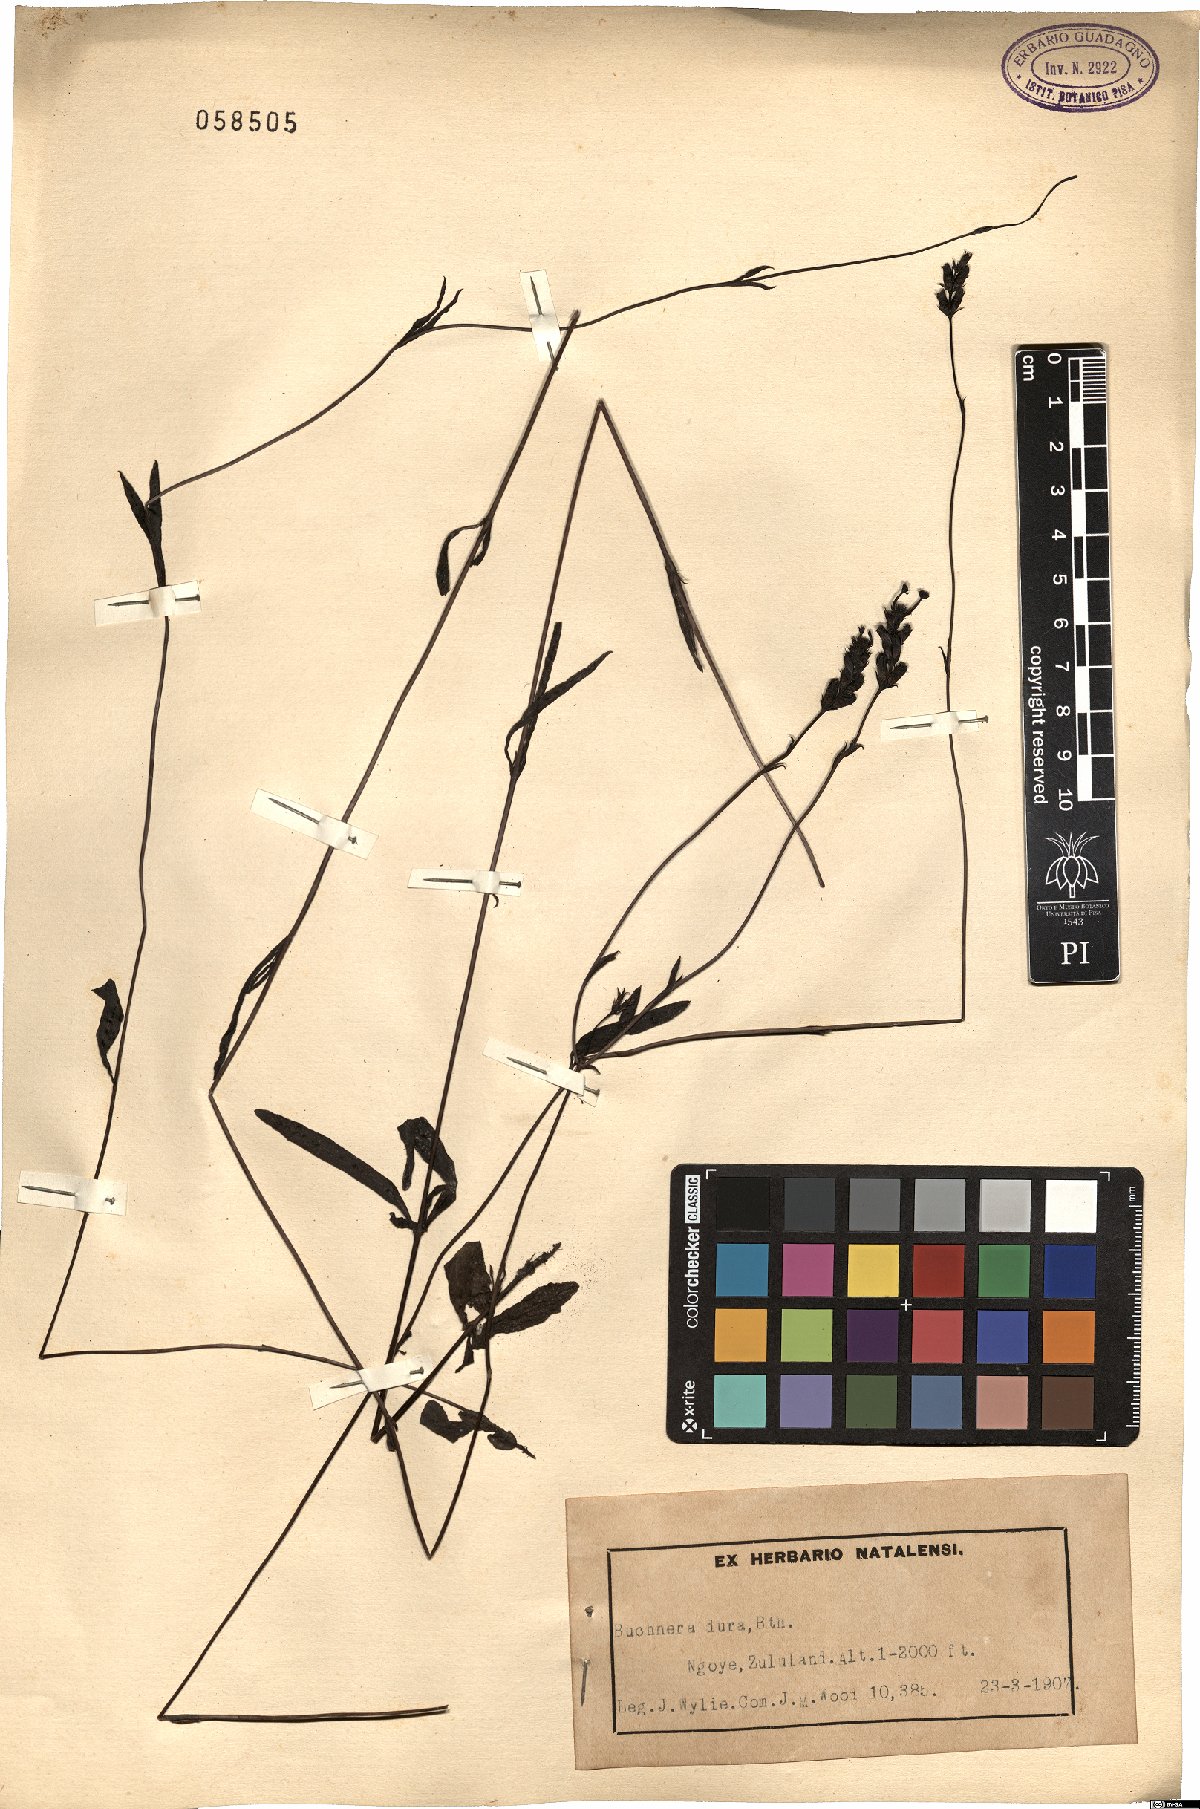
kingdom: Plantae
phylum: Tracheophyta
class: Magnoliopsida
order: Lamiales
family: Orobanchaceae
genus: Buchnera
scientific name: Buchnera dura
